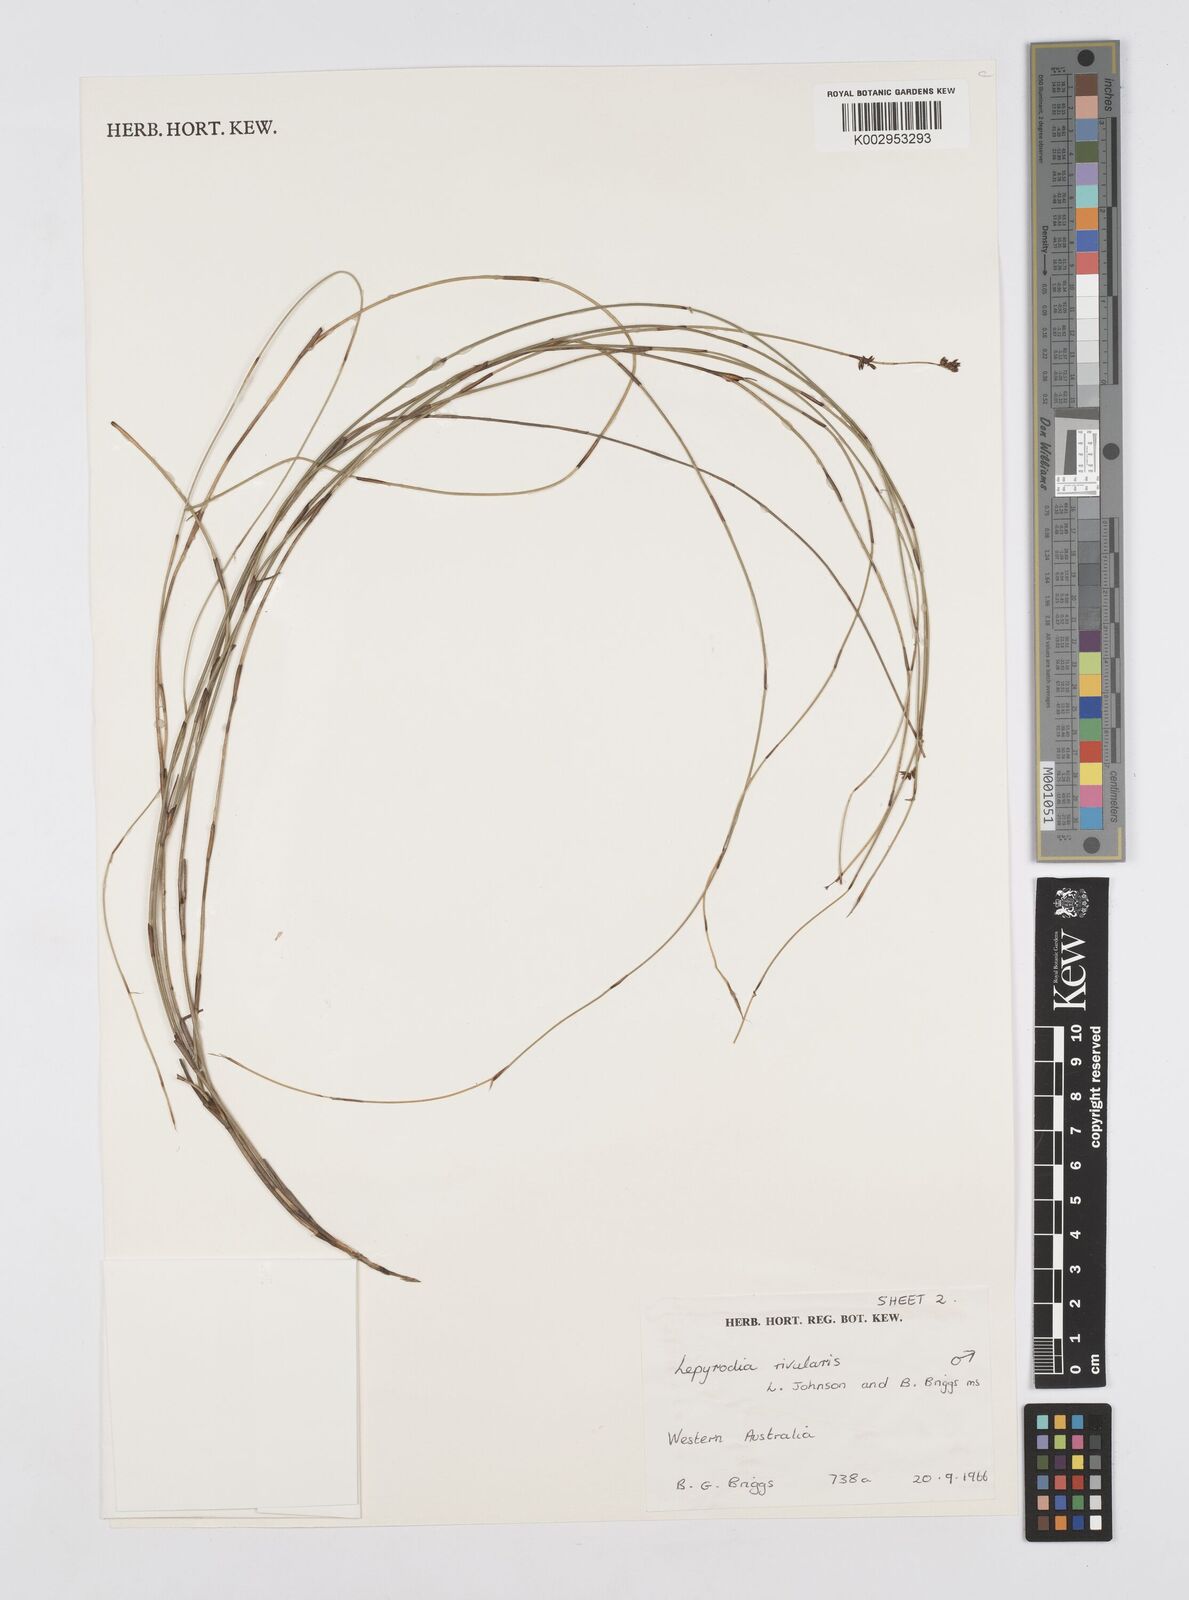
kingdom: Plantae
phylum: Tracheophyta
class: Liliopsida
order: Poales
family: Restionaceae
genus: Sporadanthus
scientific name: Sporadanthus rivularis
